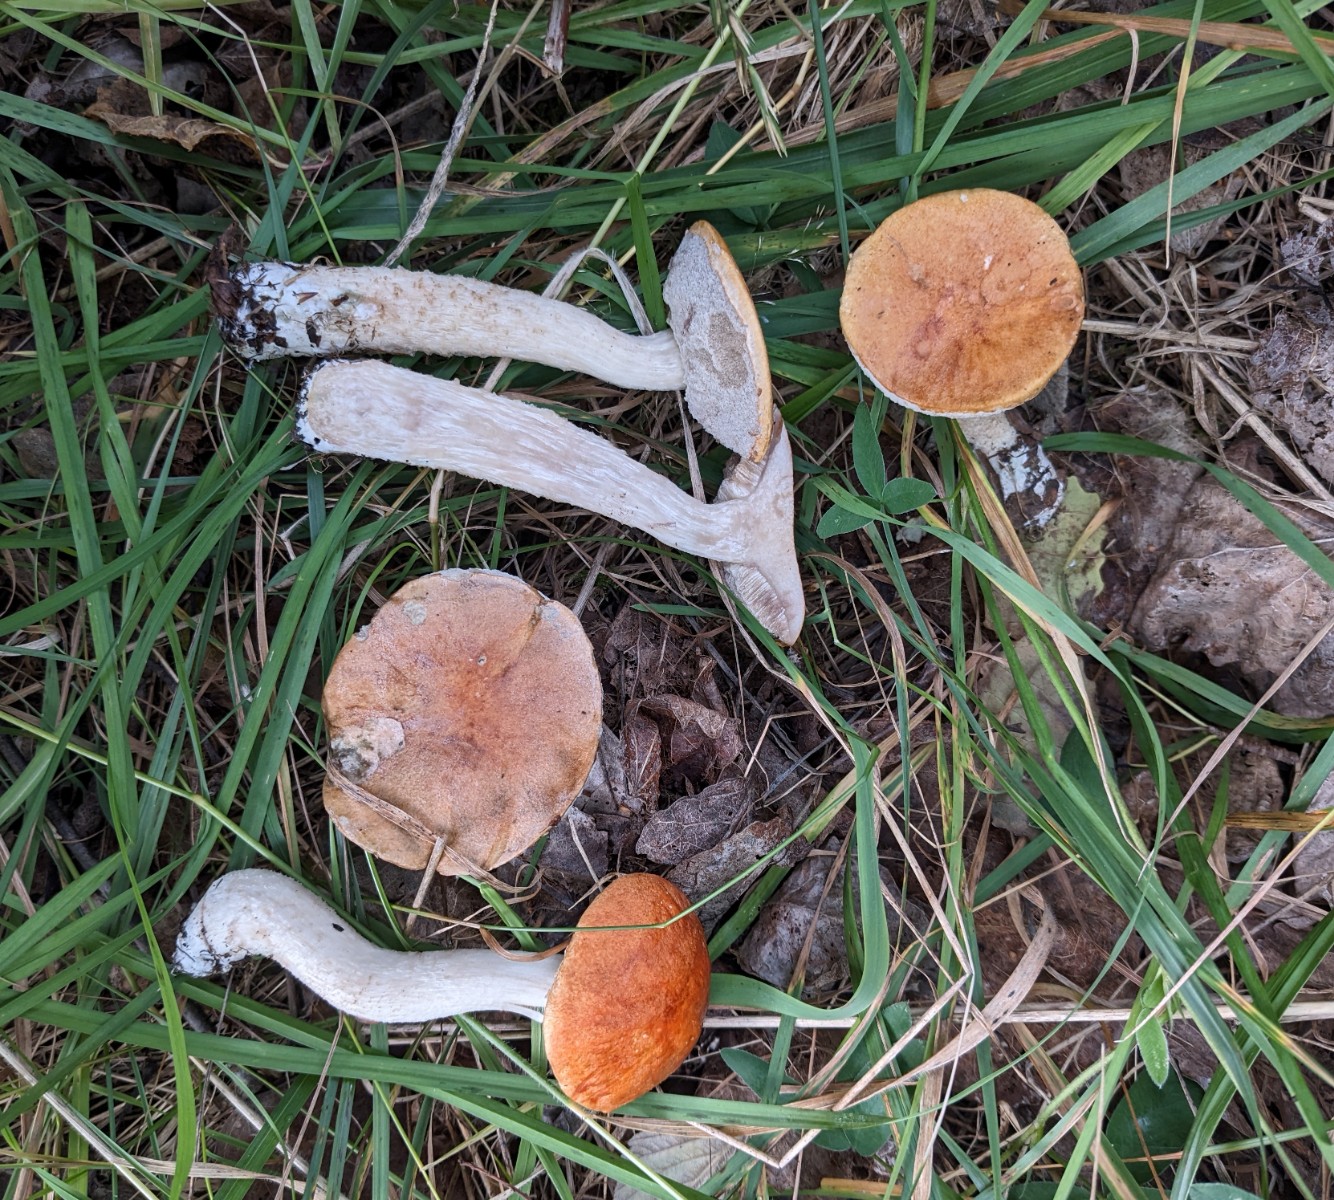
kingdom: Fungi
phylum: Basidiomycota
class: Agaricomycetes
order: Boletales
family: Boletaceae
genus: Leccinum
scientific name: Leccinum albostipitatum
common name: aspe-skælrørhat
